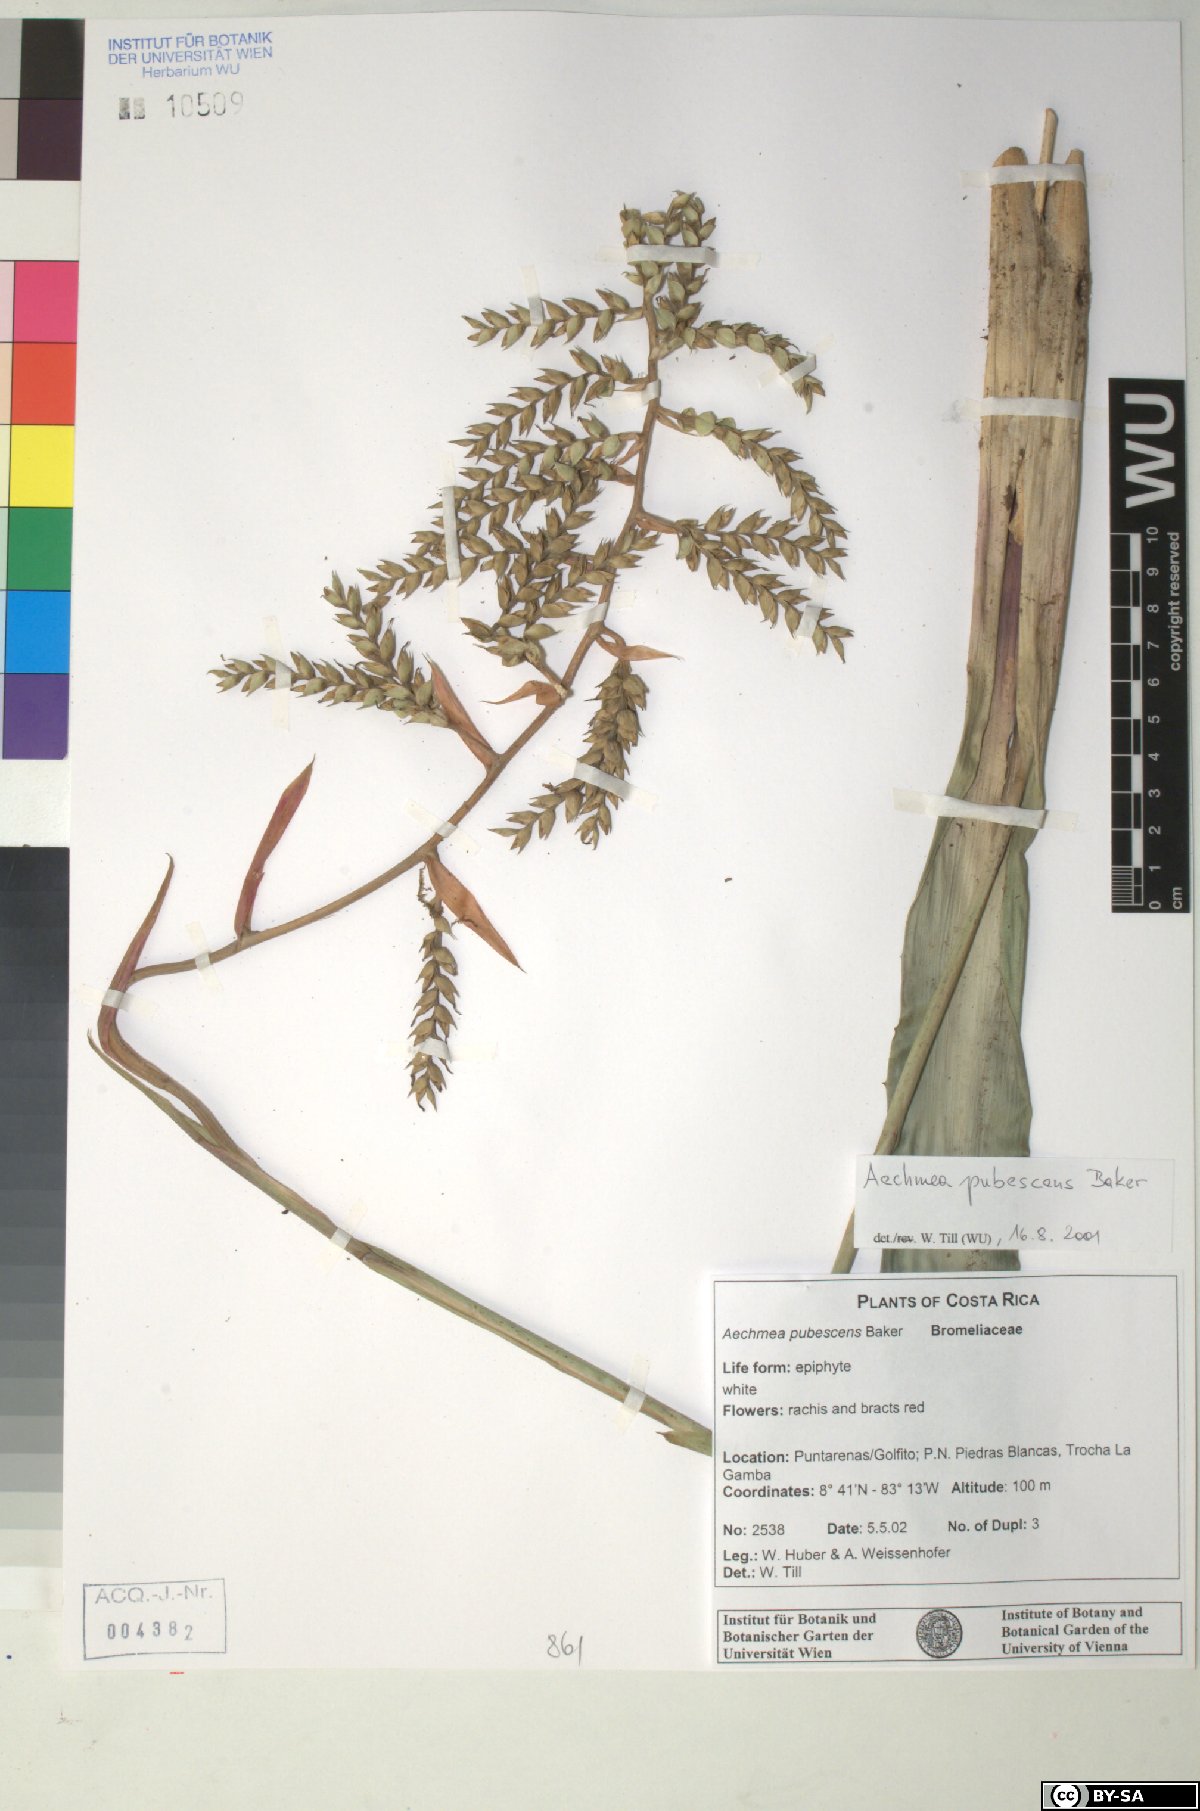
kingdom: Plantae
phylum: Tracheophyta
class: Liliopsida
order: Poales
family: Bromeliaceae
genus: Aechmea
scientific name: Aechmea pubescens
